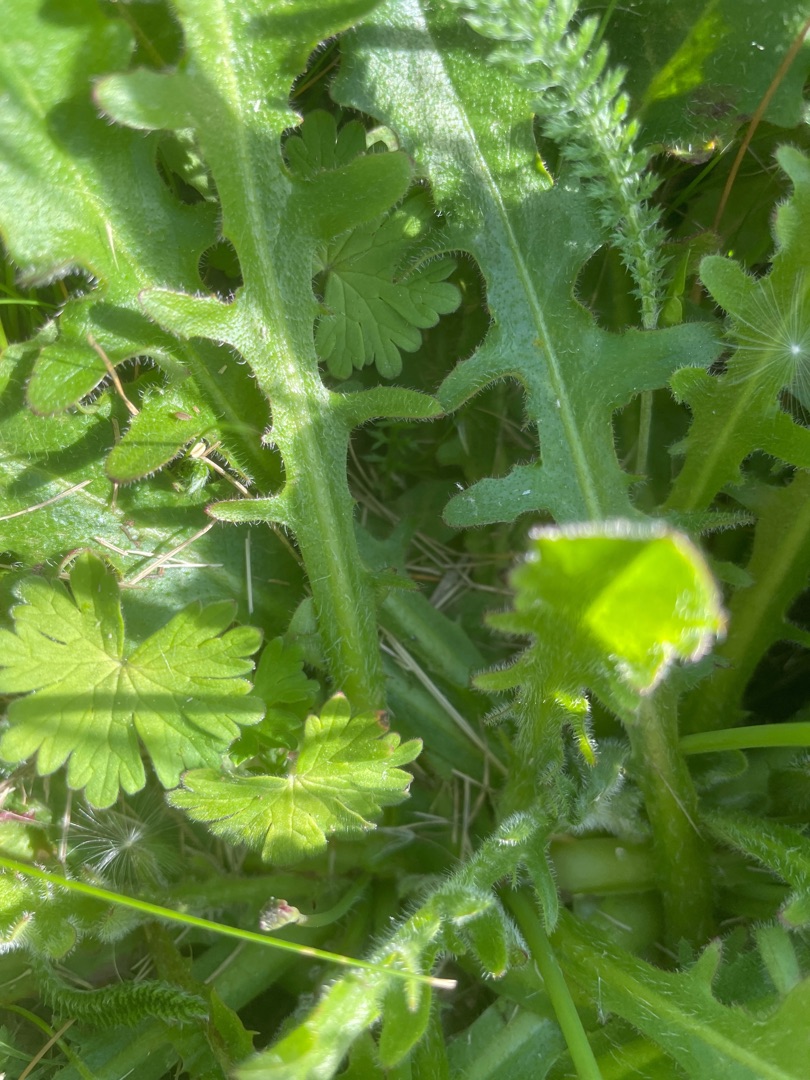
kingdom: Plantae
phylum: Tracheophyta
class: Magnoliopsida
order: Asterales
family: Asteraceae
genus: Hypochaeris
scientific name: Hypochaeris radicata
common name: Almindelig kongepen
